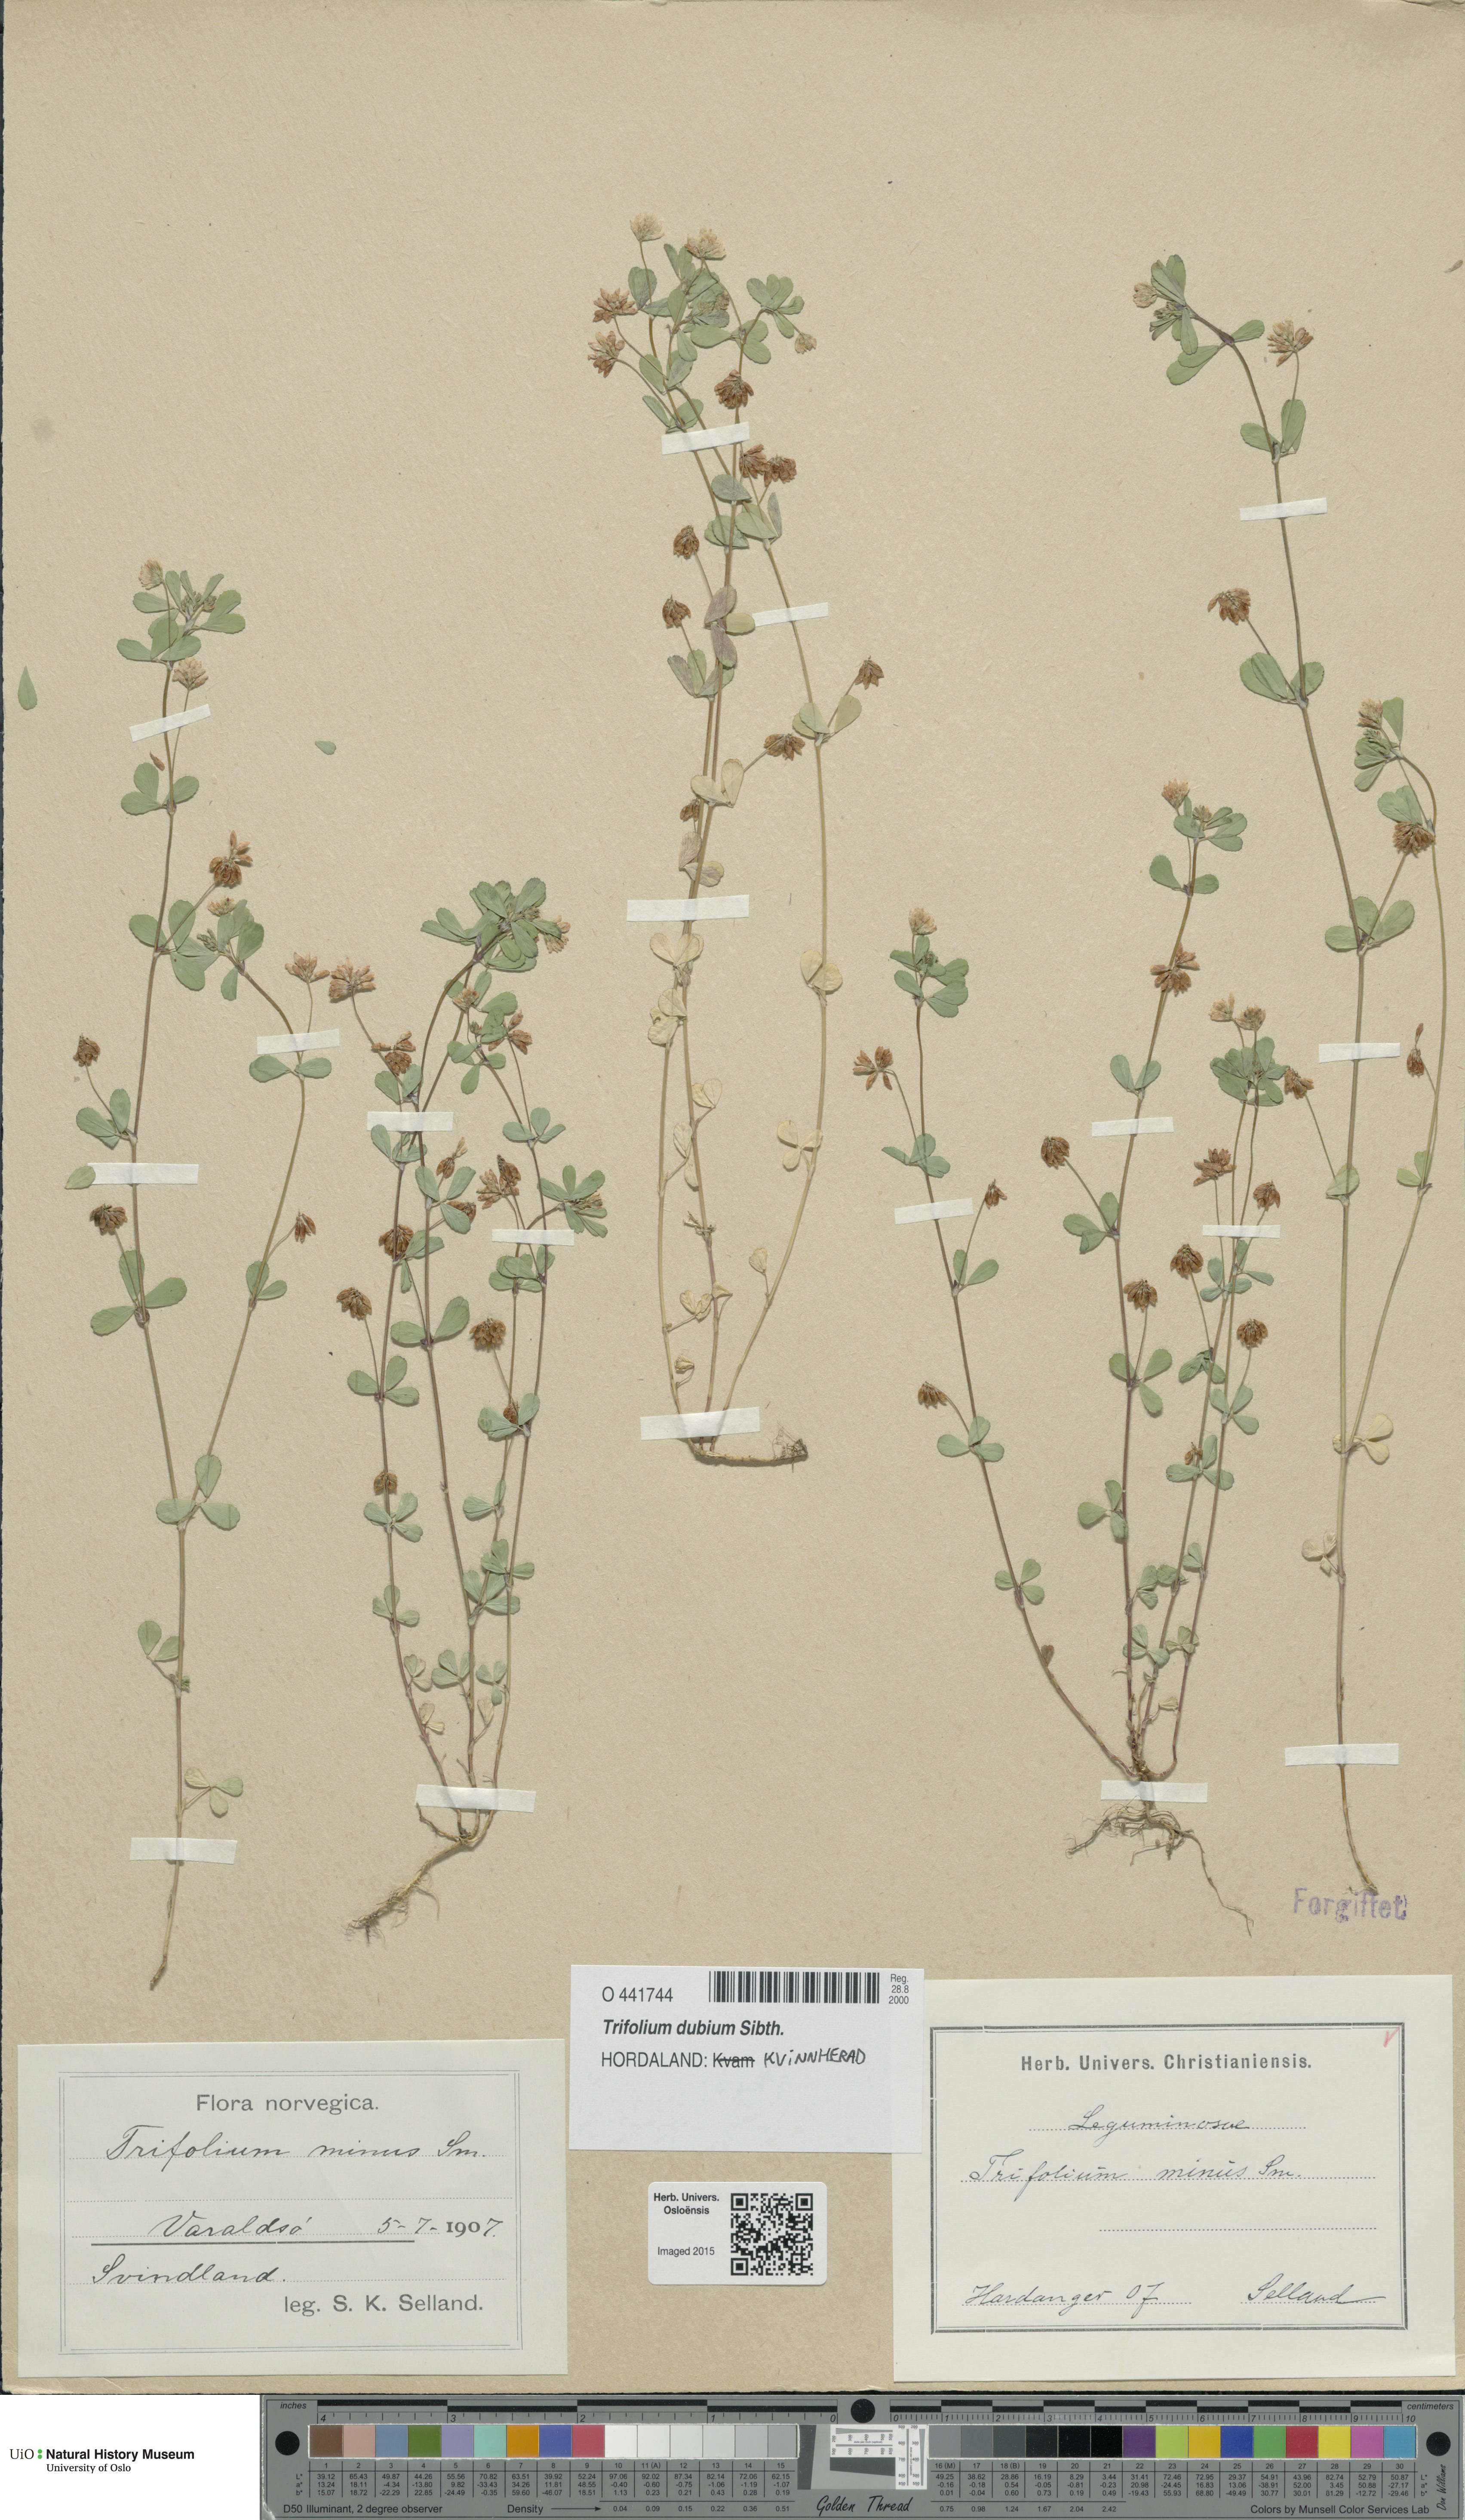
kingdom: Plantae
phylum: Tracheophyta
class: Magnoliopsida
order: Fabales
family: Fabaceae
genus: Trifolium
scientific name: Trifolium dubium
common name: Suckling clover
